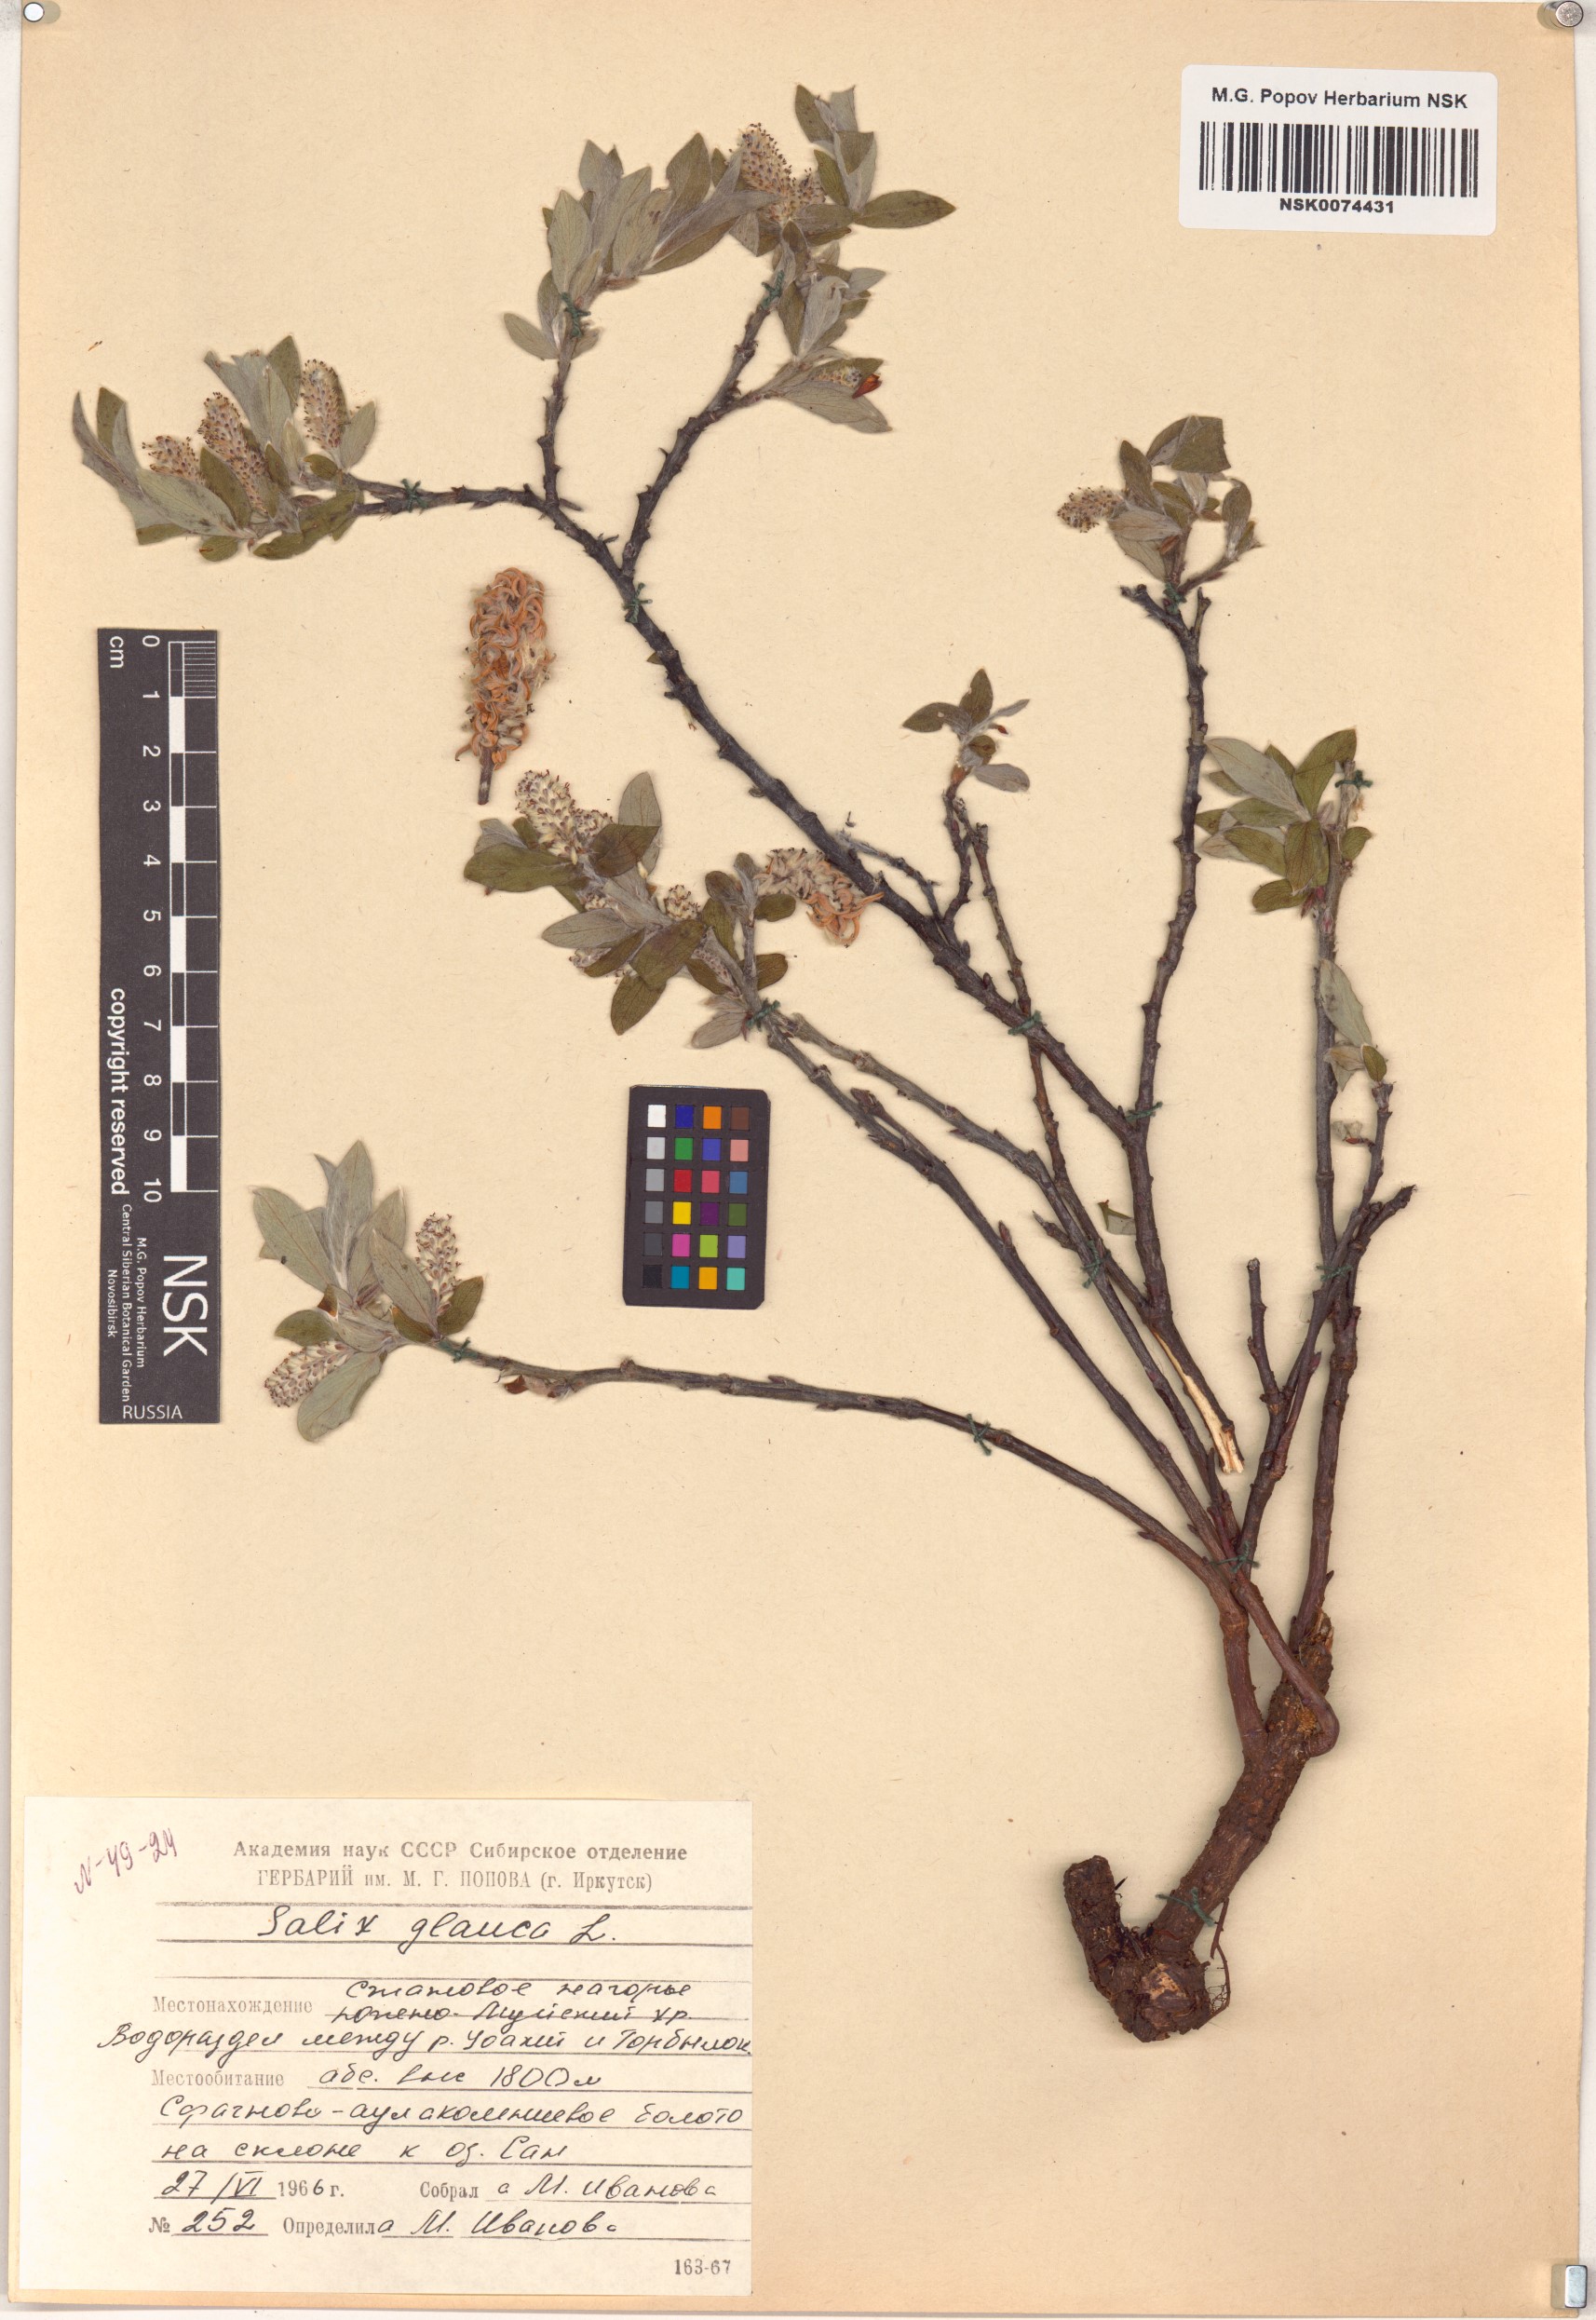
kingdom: Plantae
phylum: Tracheophyta
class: Magnoliopsida
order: Malpighiales
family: Salicaceae
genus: Salix
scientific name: Salix glauca
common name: Glaucous willow
